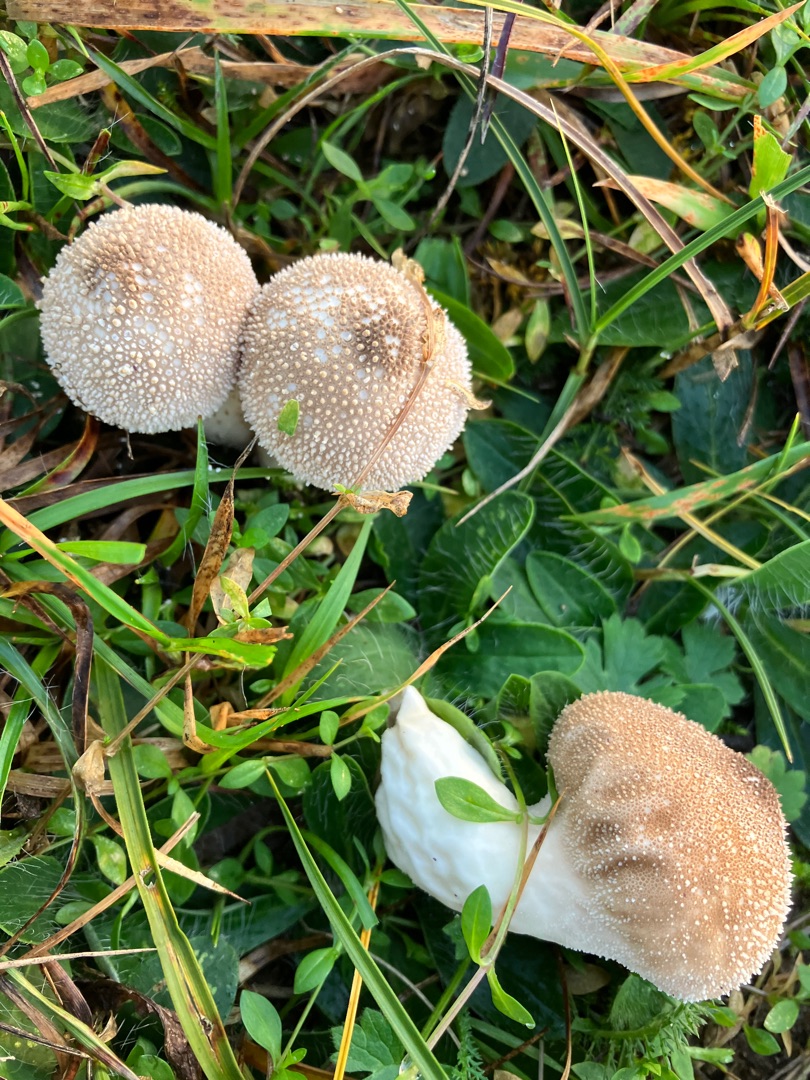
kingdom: Fungi
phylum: Basidiomycota
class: Agaricomycetes
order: Agaricales
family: Lycoperdaceae
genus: Lycoperdon
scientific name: Lycoperdon perlatum
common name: Krystal-støvbold
